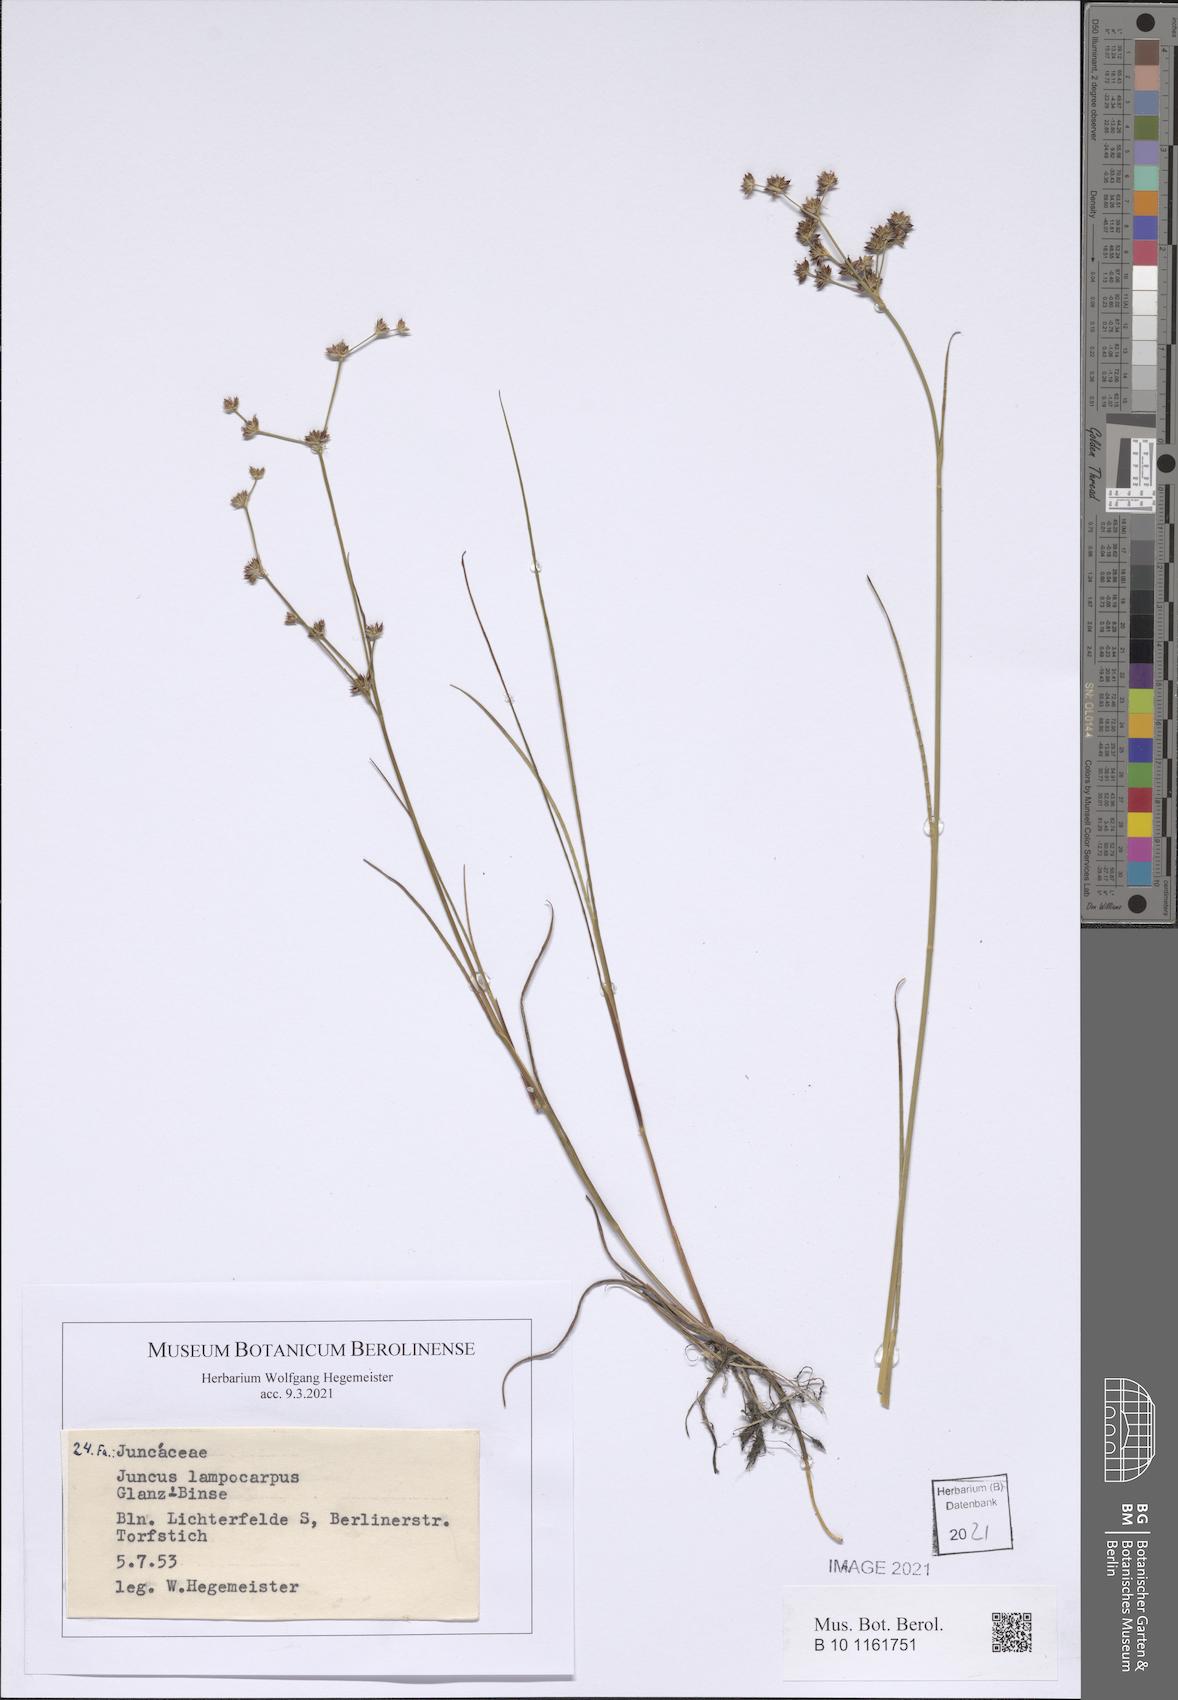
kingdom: Plantae
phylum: Tracheophyta
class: Liliopsida
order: Poales
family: Juncaceae
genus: Juncus
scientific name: Juncus articulatus
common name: Jointed rush
